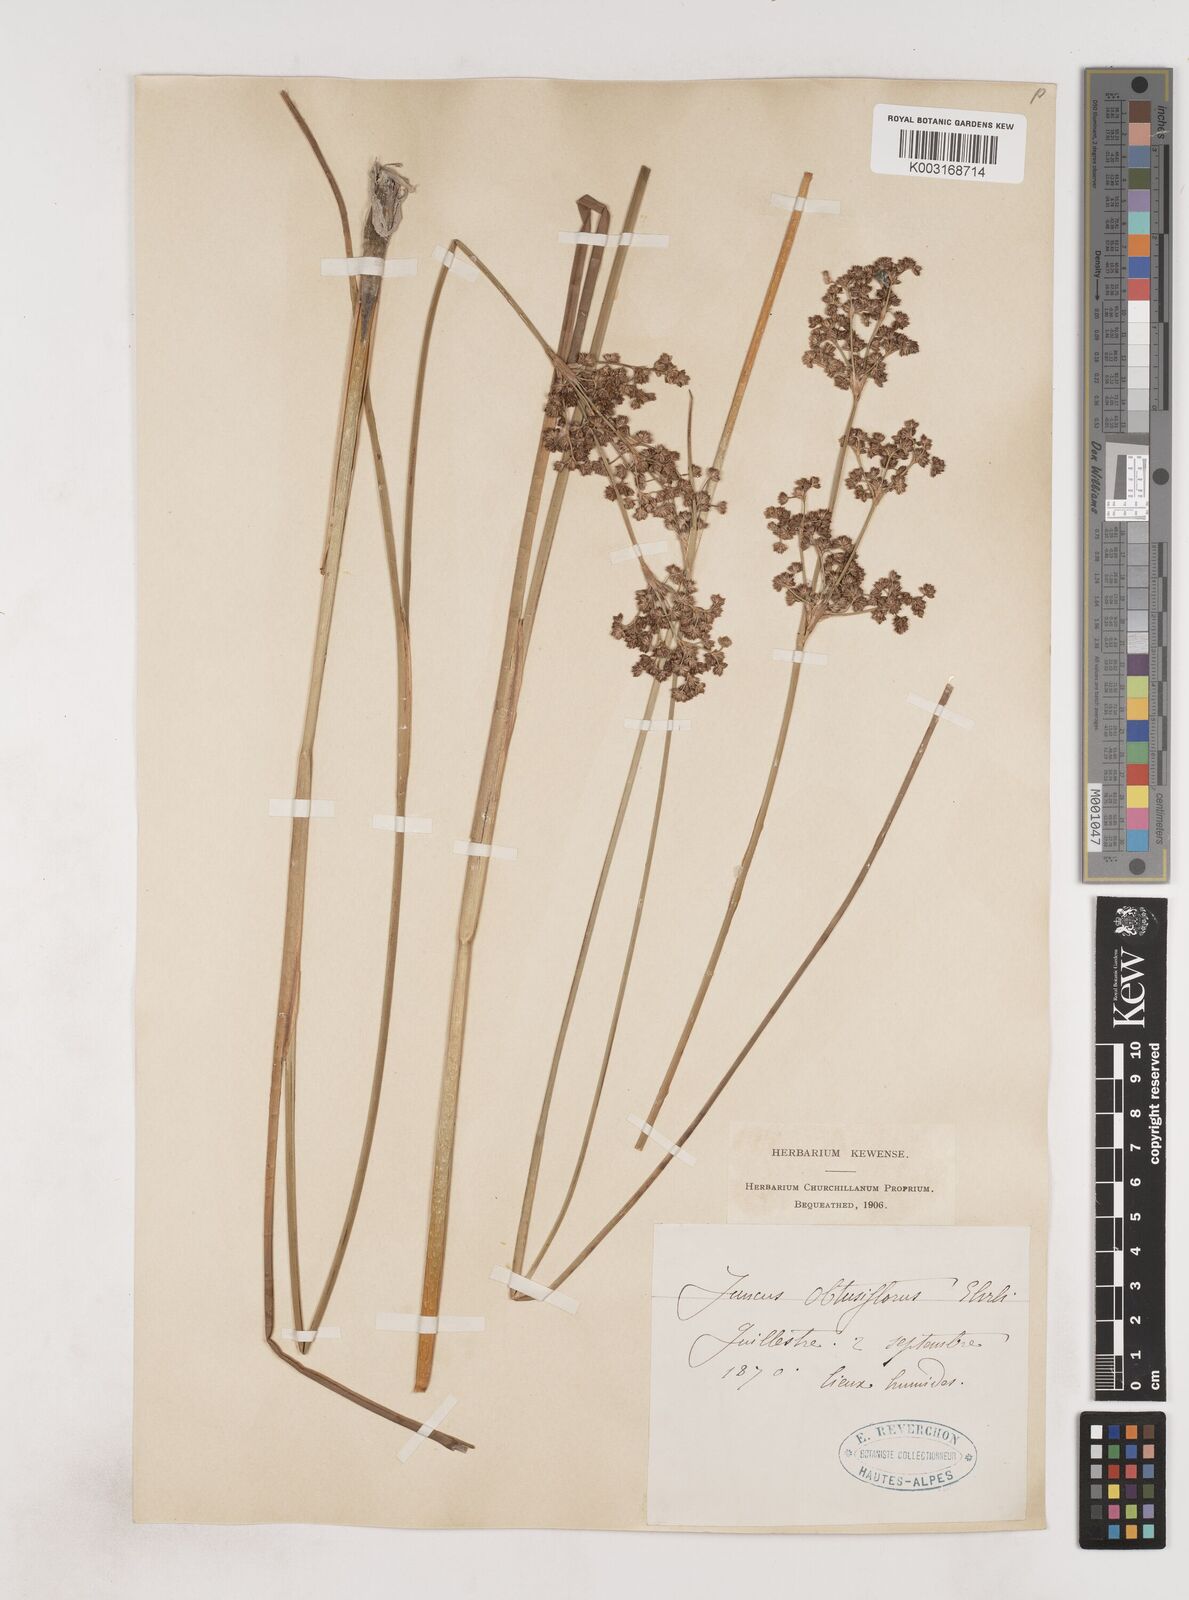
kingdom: Plantae
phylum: Tracheophyta
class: Liliopsida
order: Poales
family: Juncaceae
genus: Juncus
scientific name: Juncus subnodulosus
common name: Blunt-flowered rush
